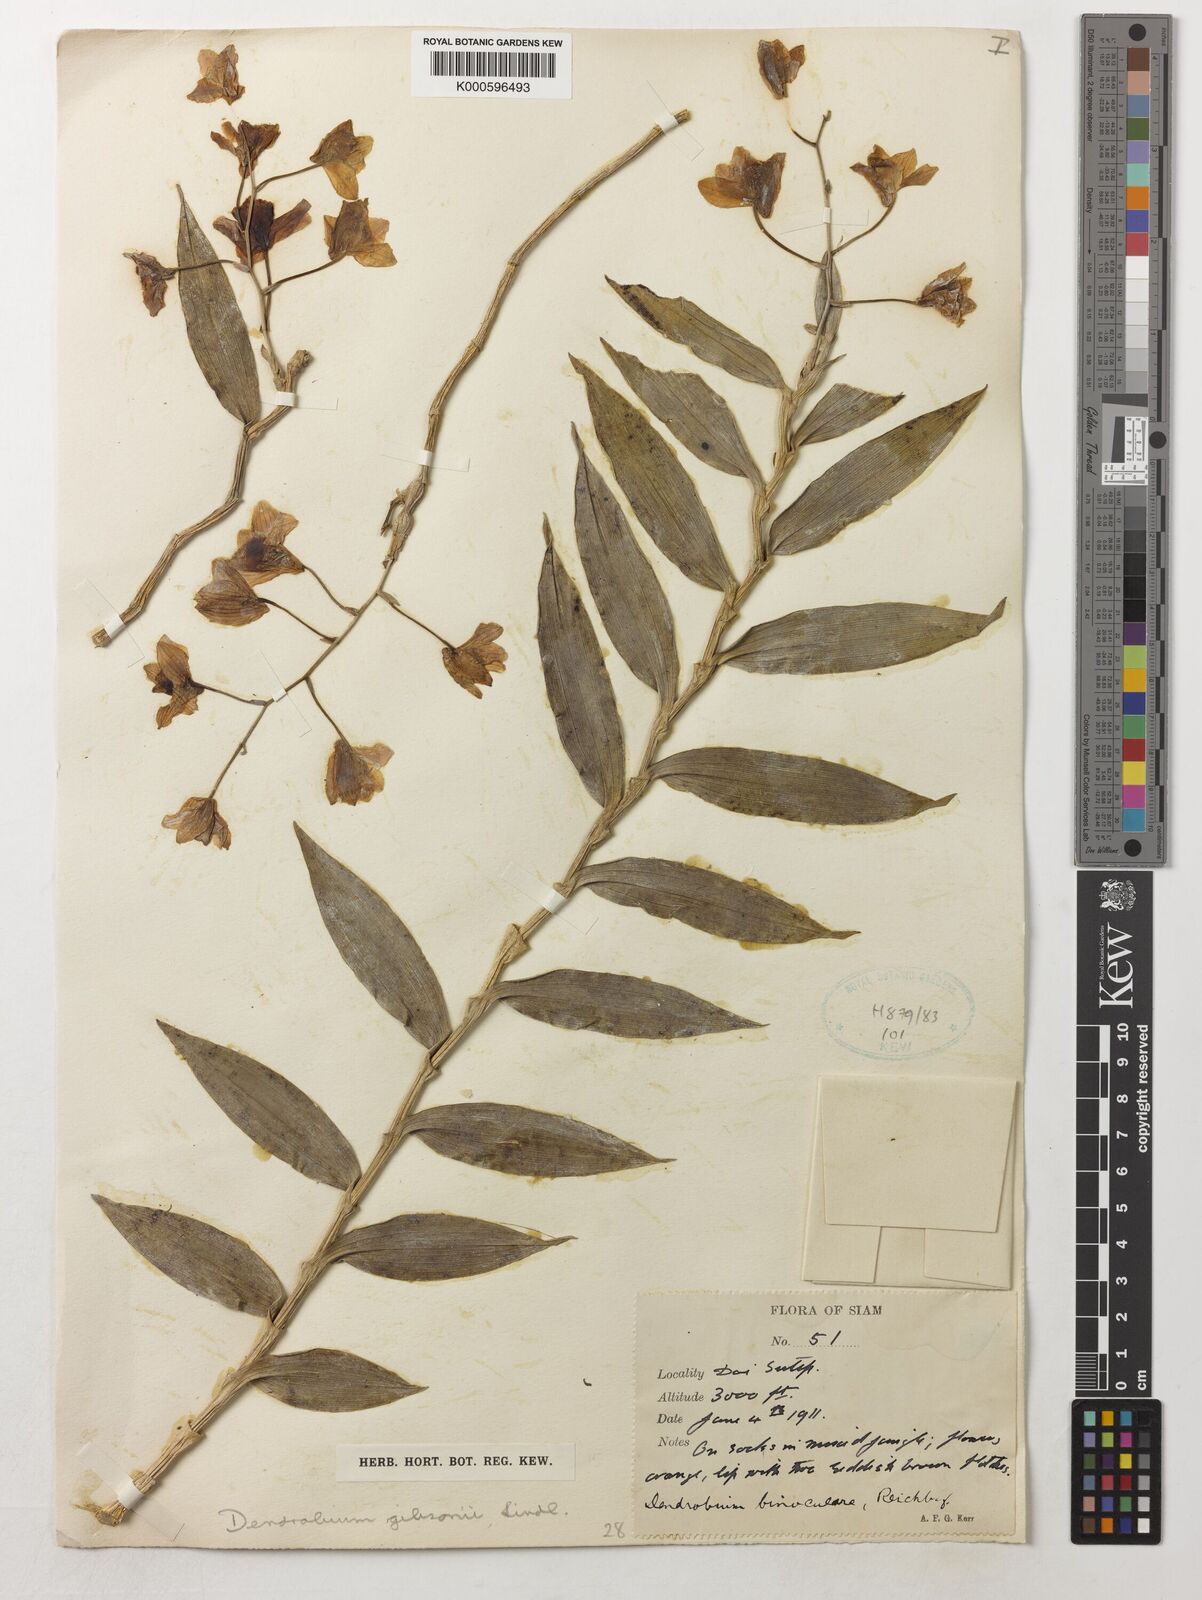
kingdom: Plantae
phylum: Tracheophyta
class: Liliopsida
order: Asparagales
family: Orchidaceae
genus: Dendrobium
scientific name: Dendrobium
